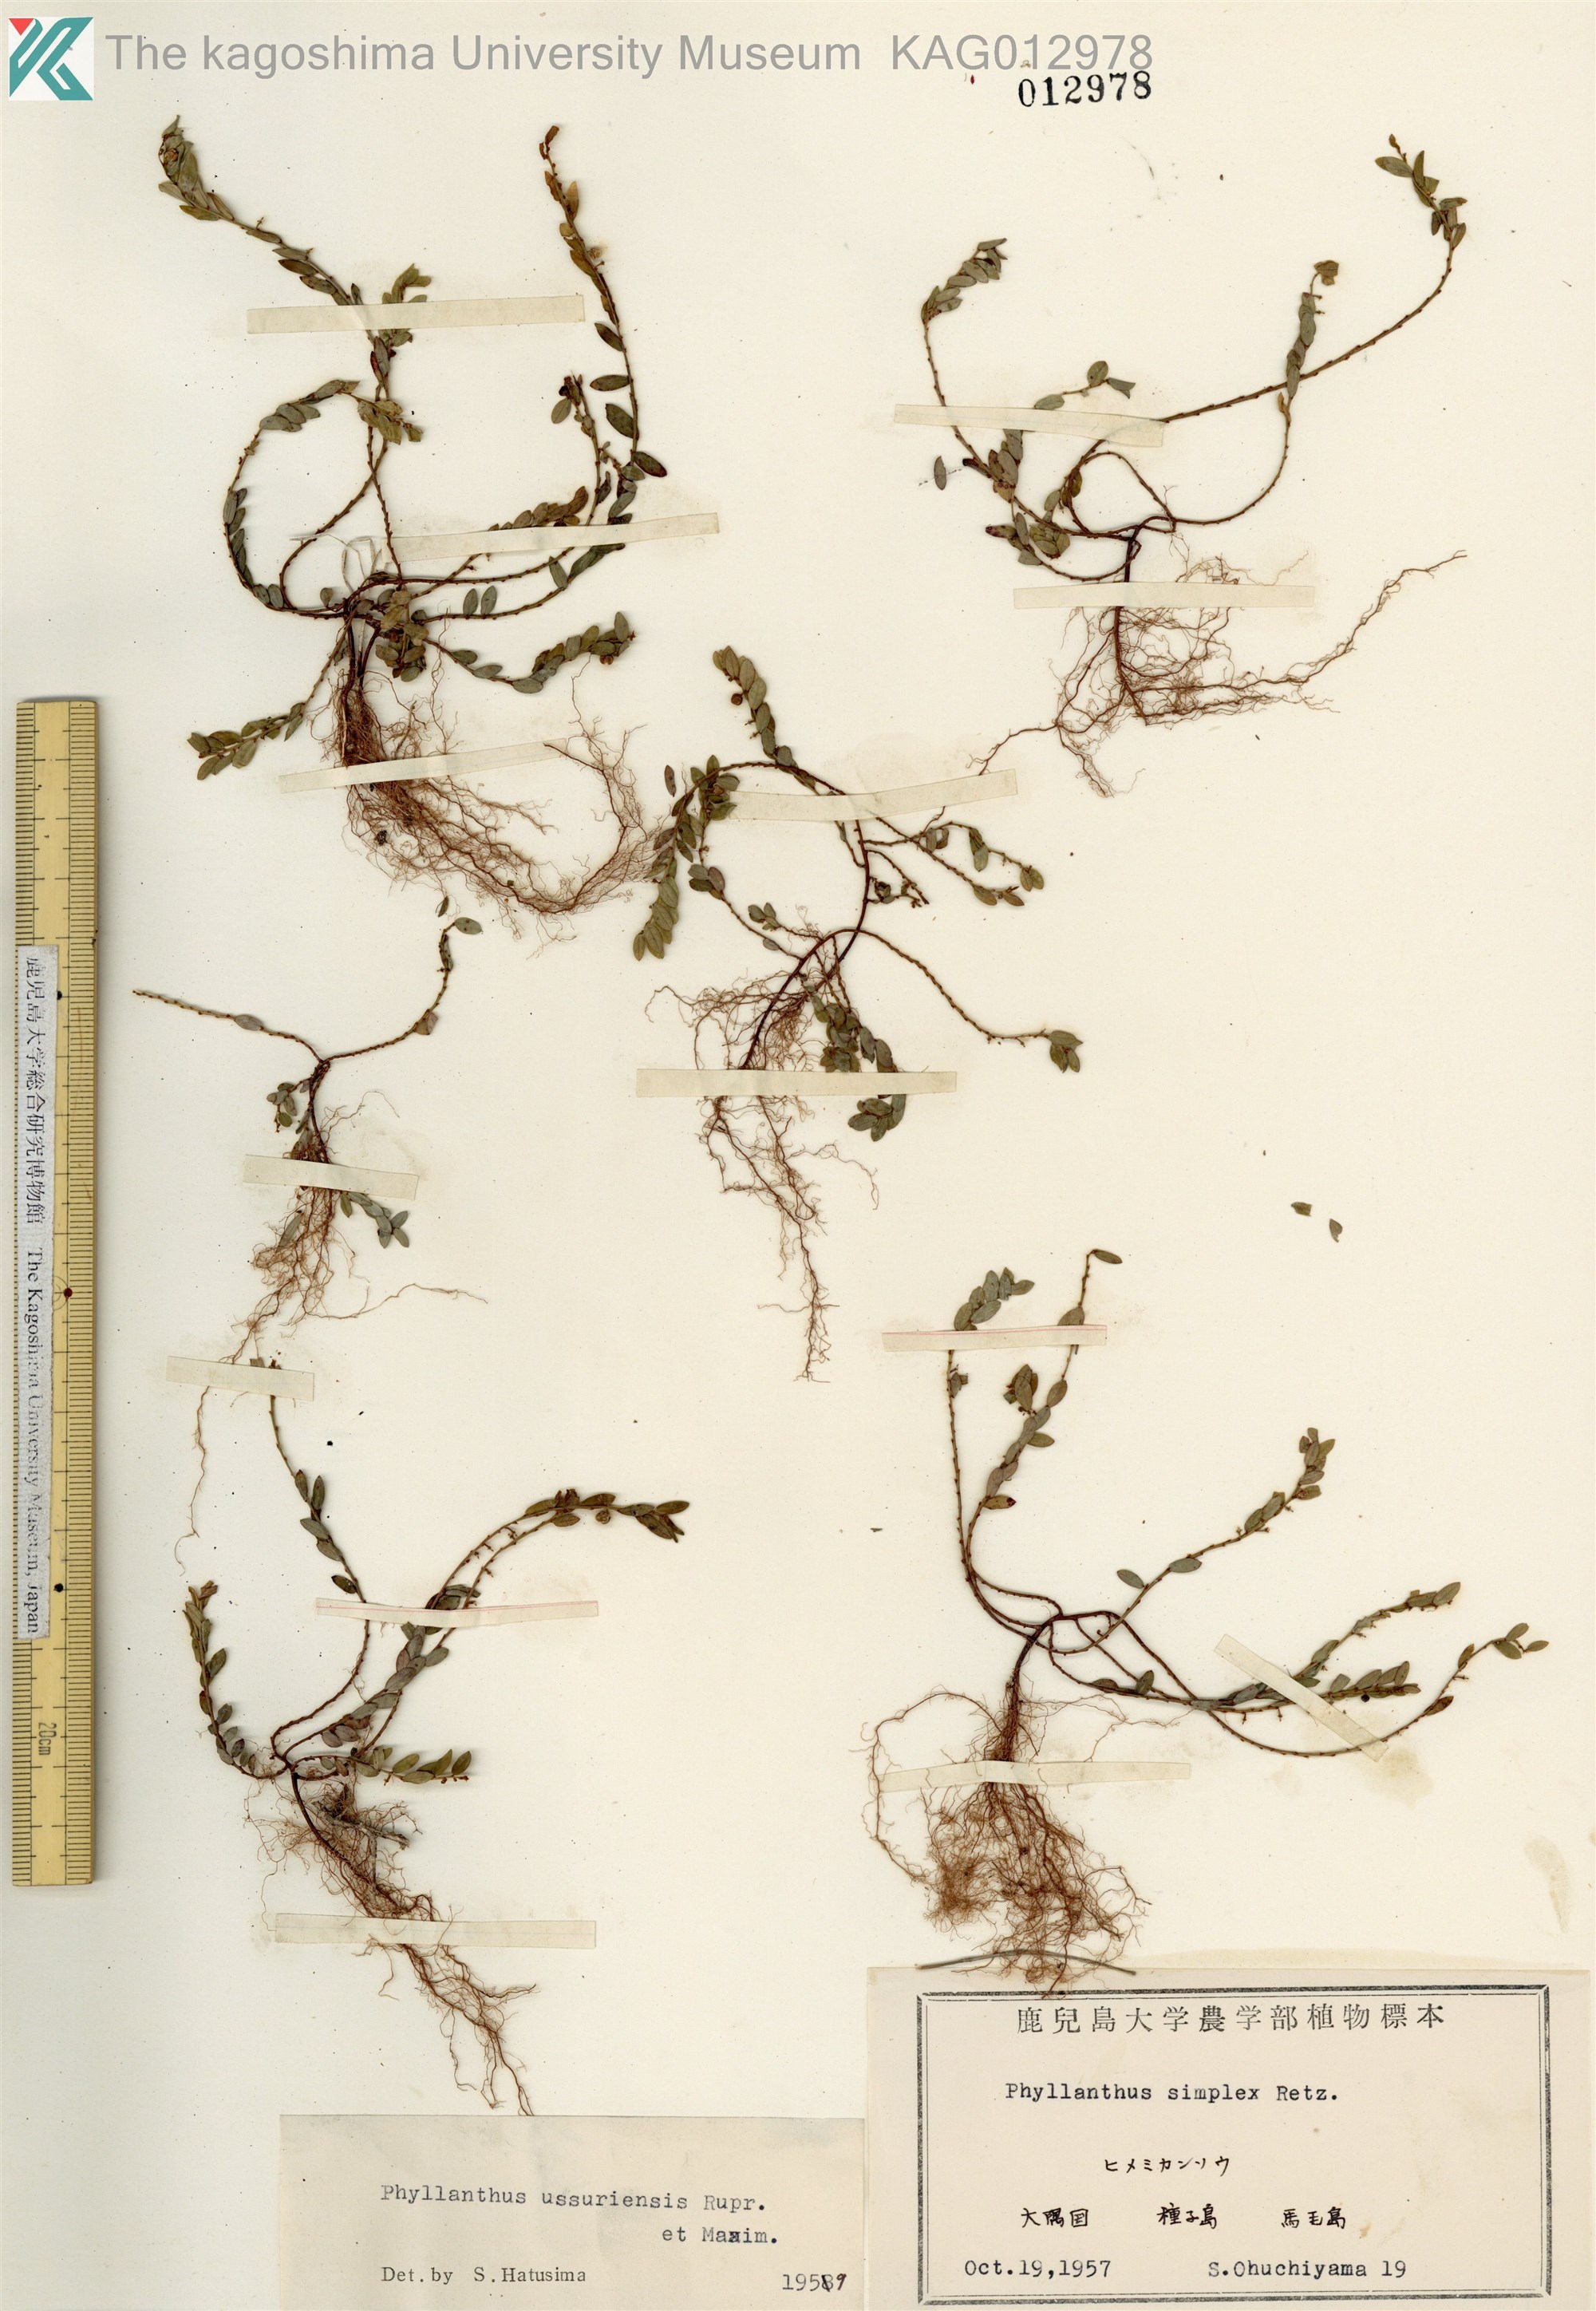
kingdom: Plantae
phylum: Tracheophyta
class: Magnoliopsida
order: Malpighiales
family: Phyllanthaceae
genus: Phyllanthus
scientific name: Phyllanthus ussuriensis
